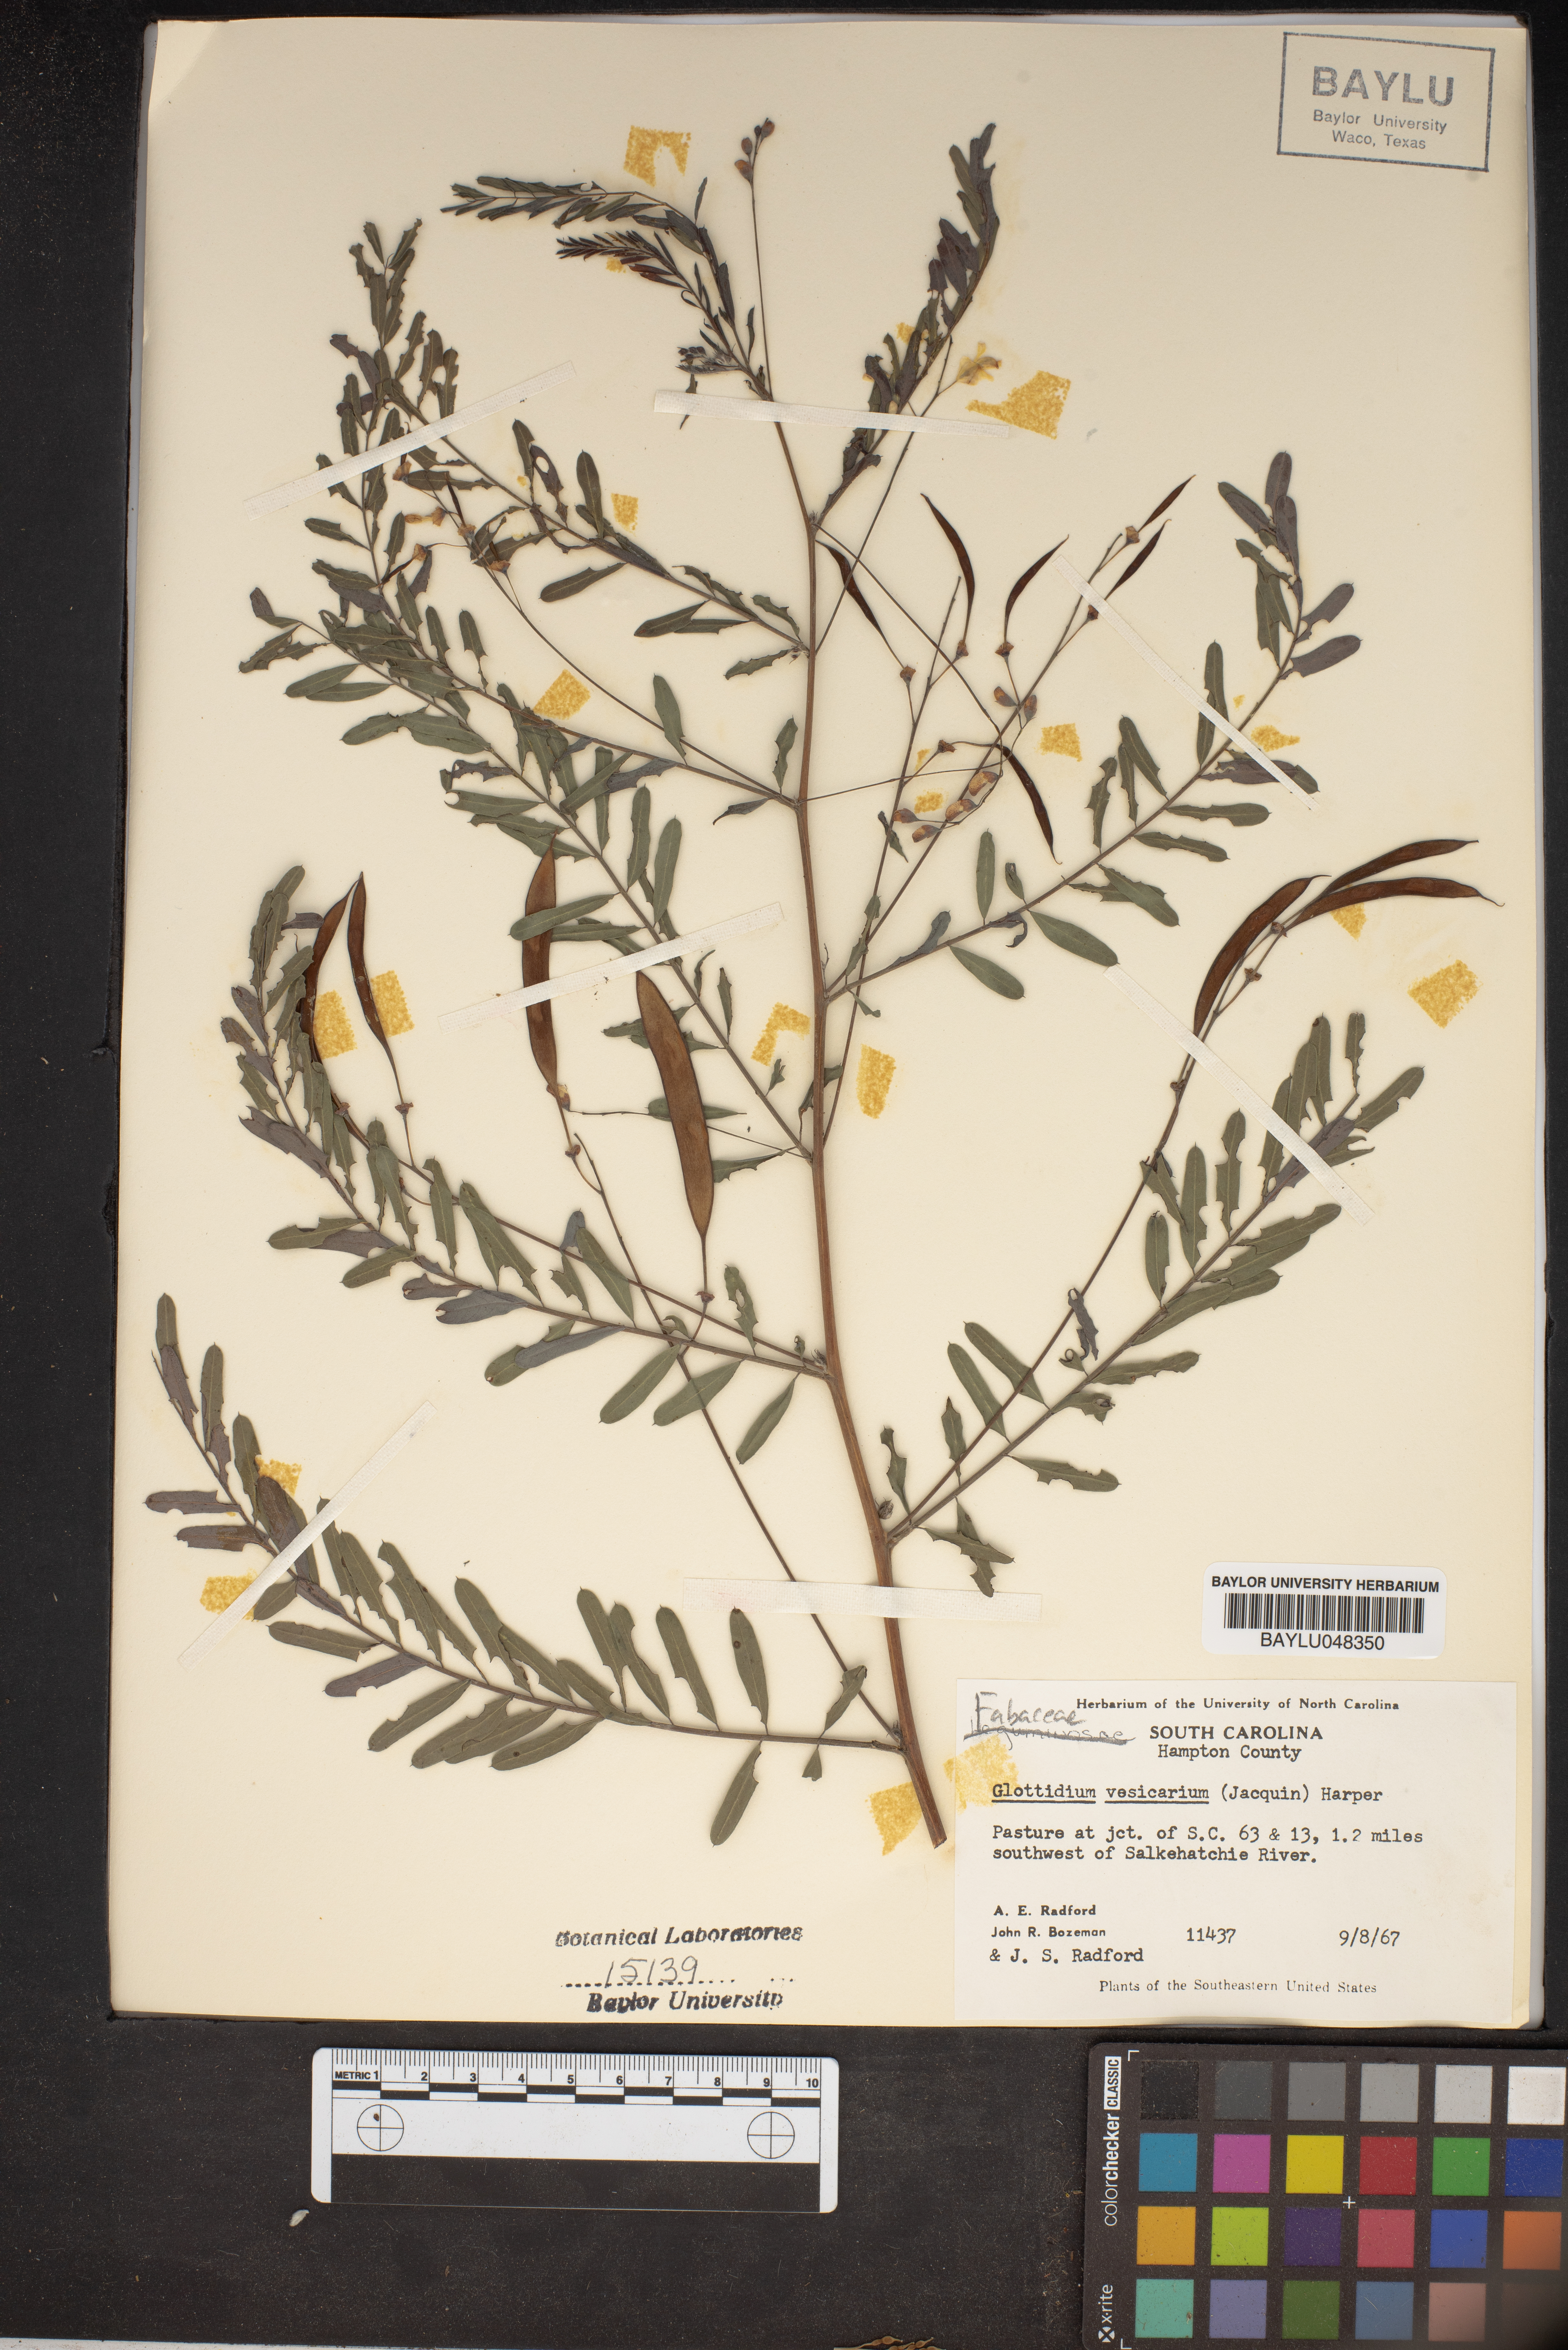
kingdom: Plantae
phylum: Tracheophyta
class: Magnoliopsida
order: Fabales
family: Fabaceae
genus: Sesbania
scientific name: Sesbania vesicaria
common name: Bagpod
